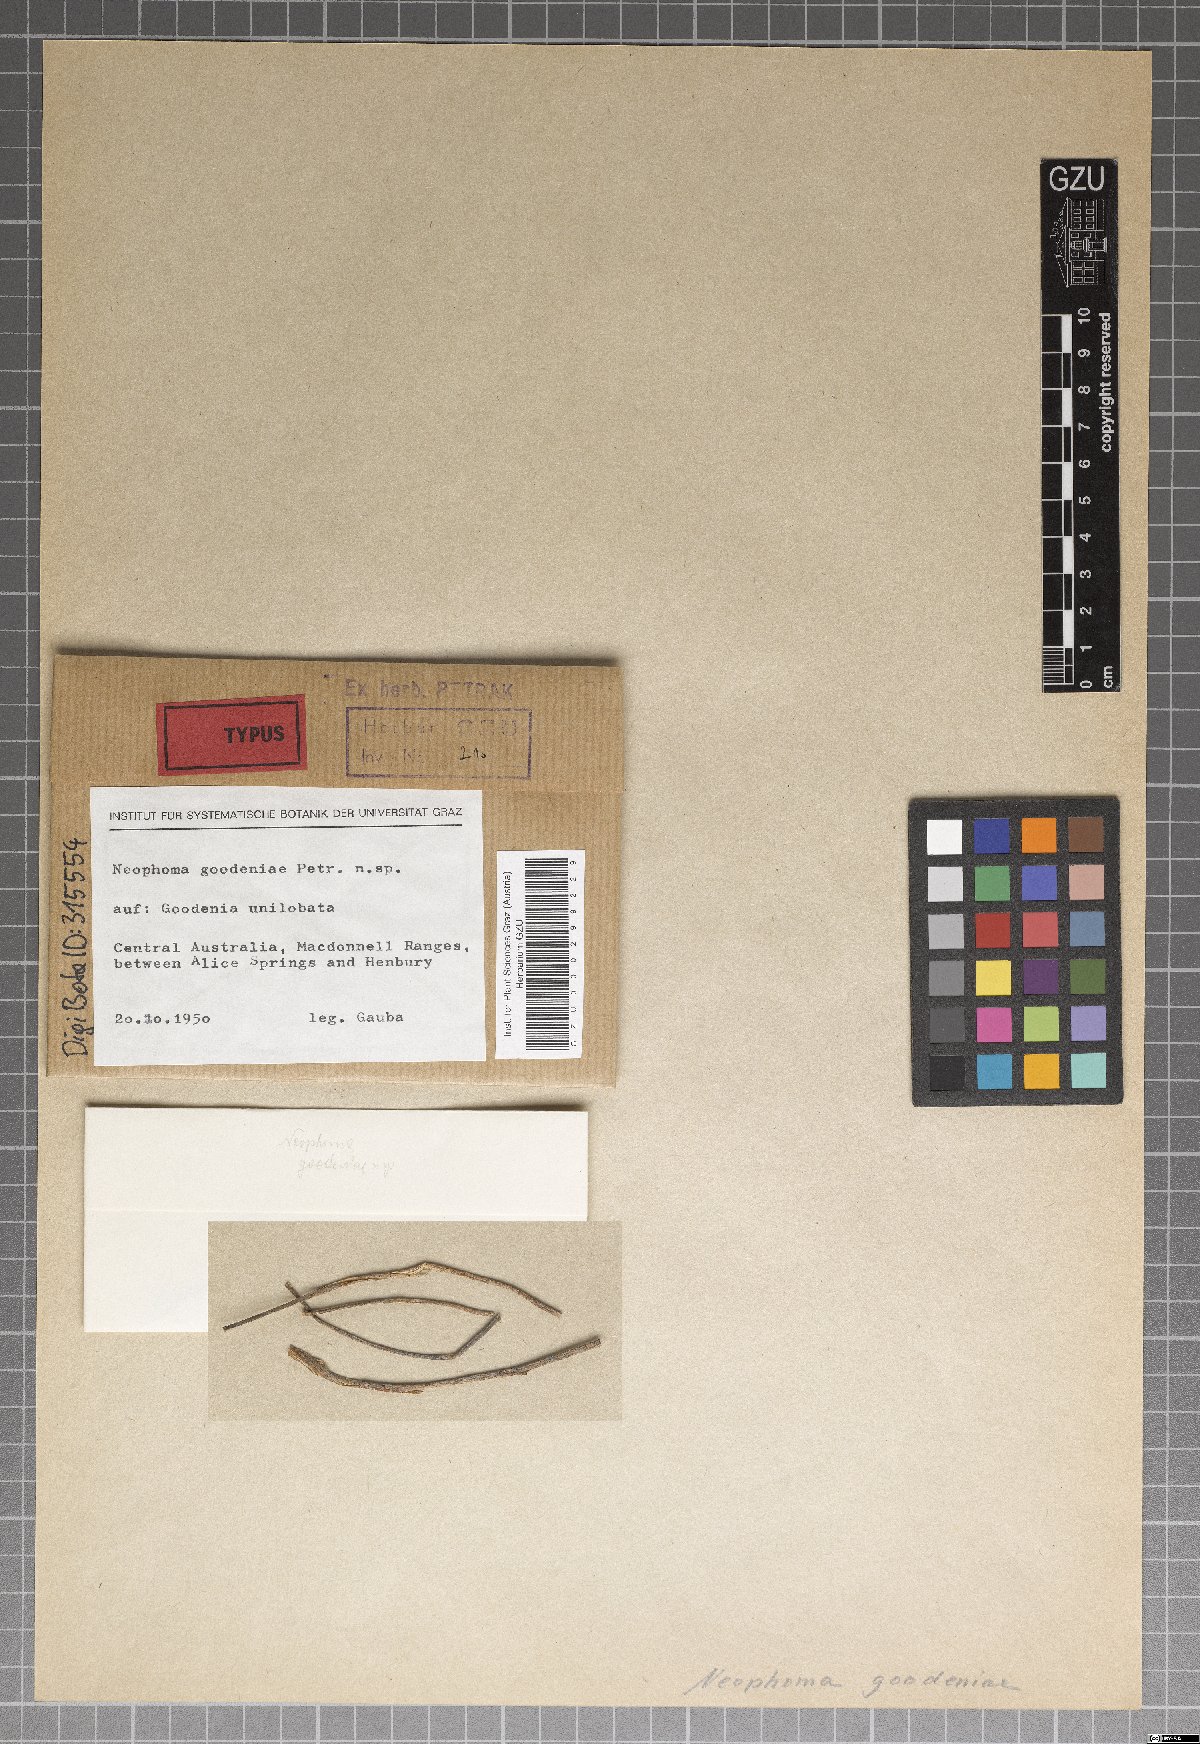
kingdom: Fungi
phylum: Ascomycota
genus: Neophoma
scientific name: Neophoma goodeniae
